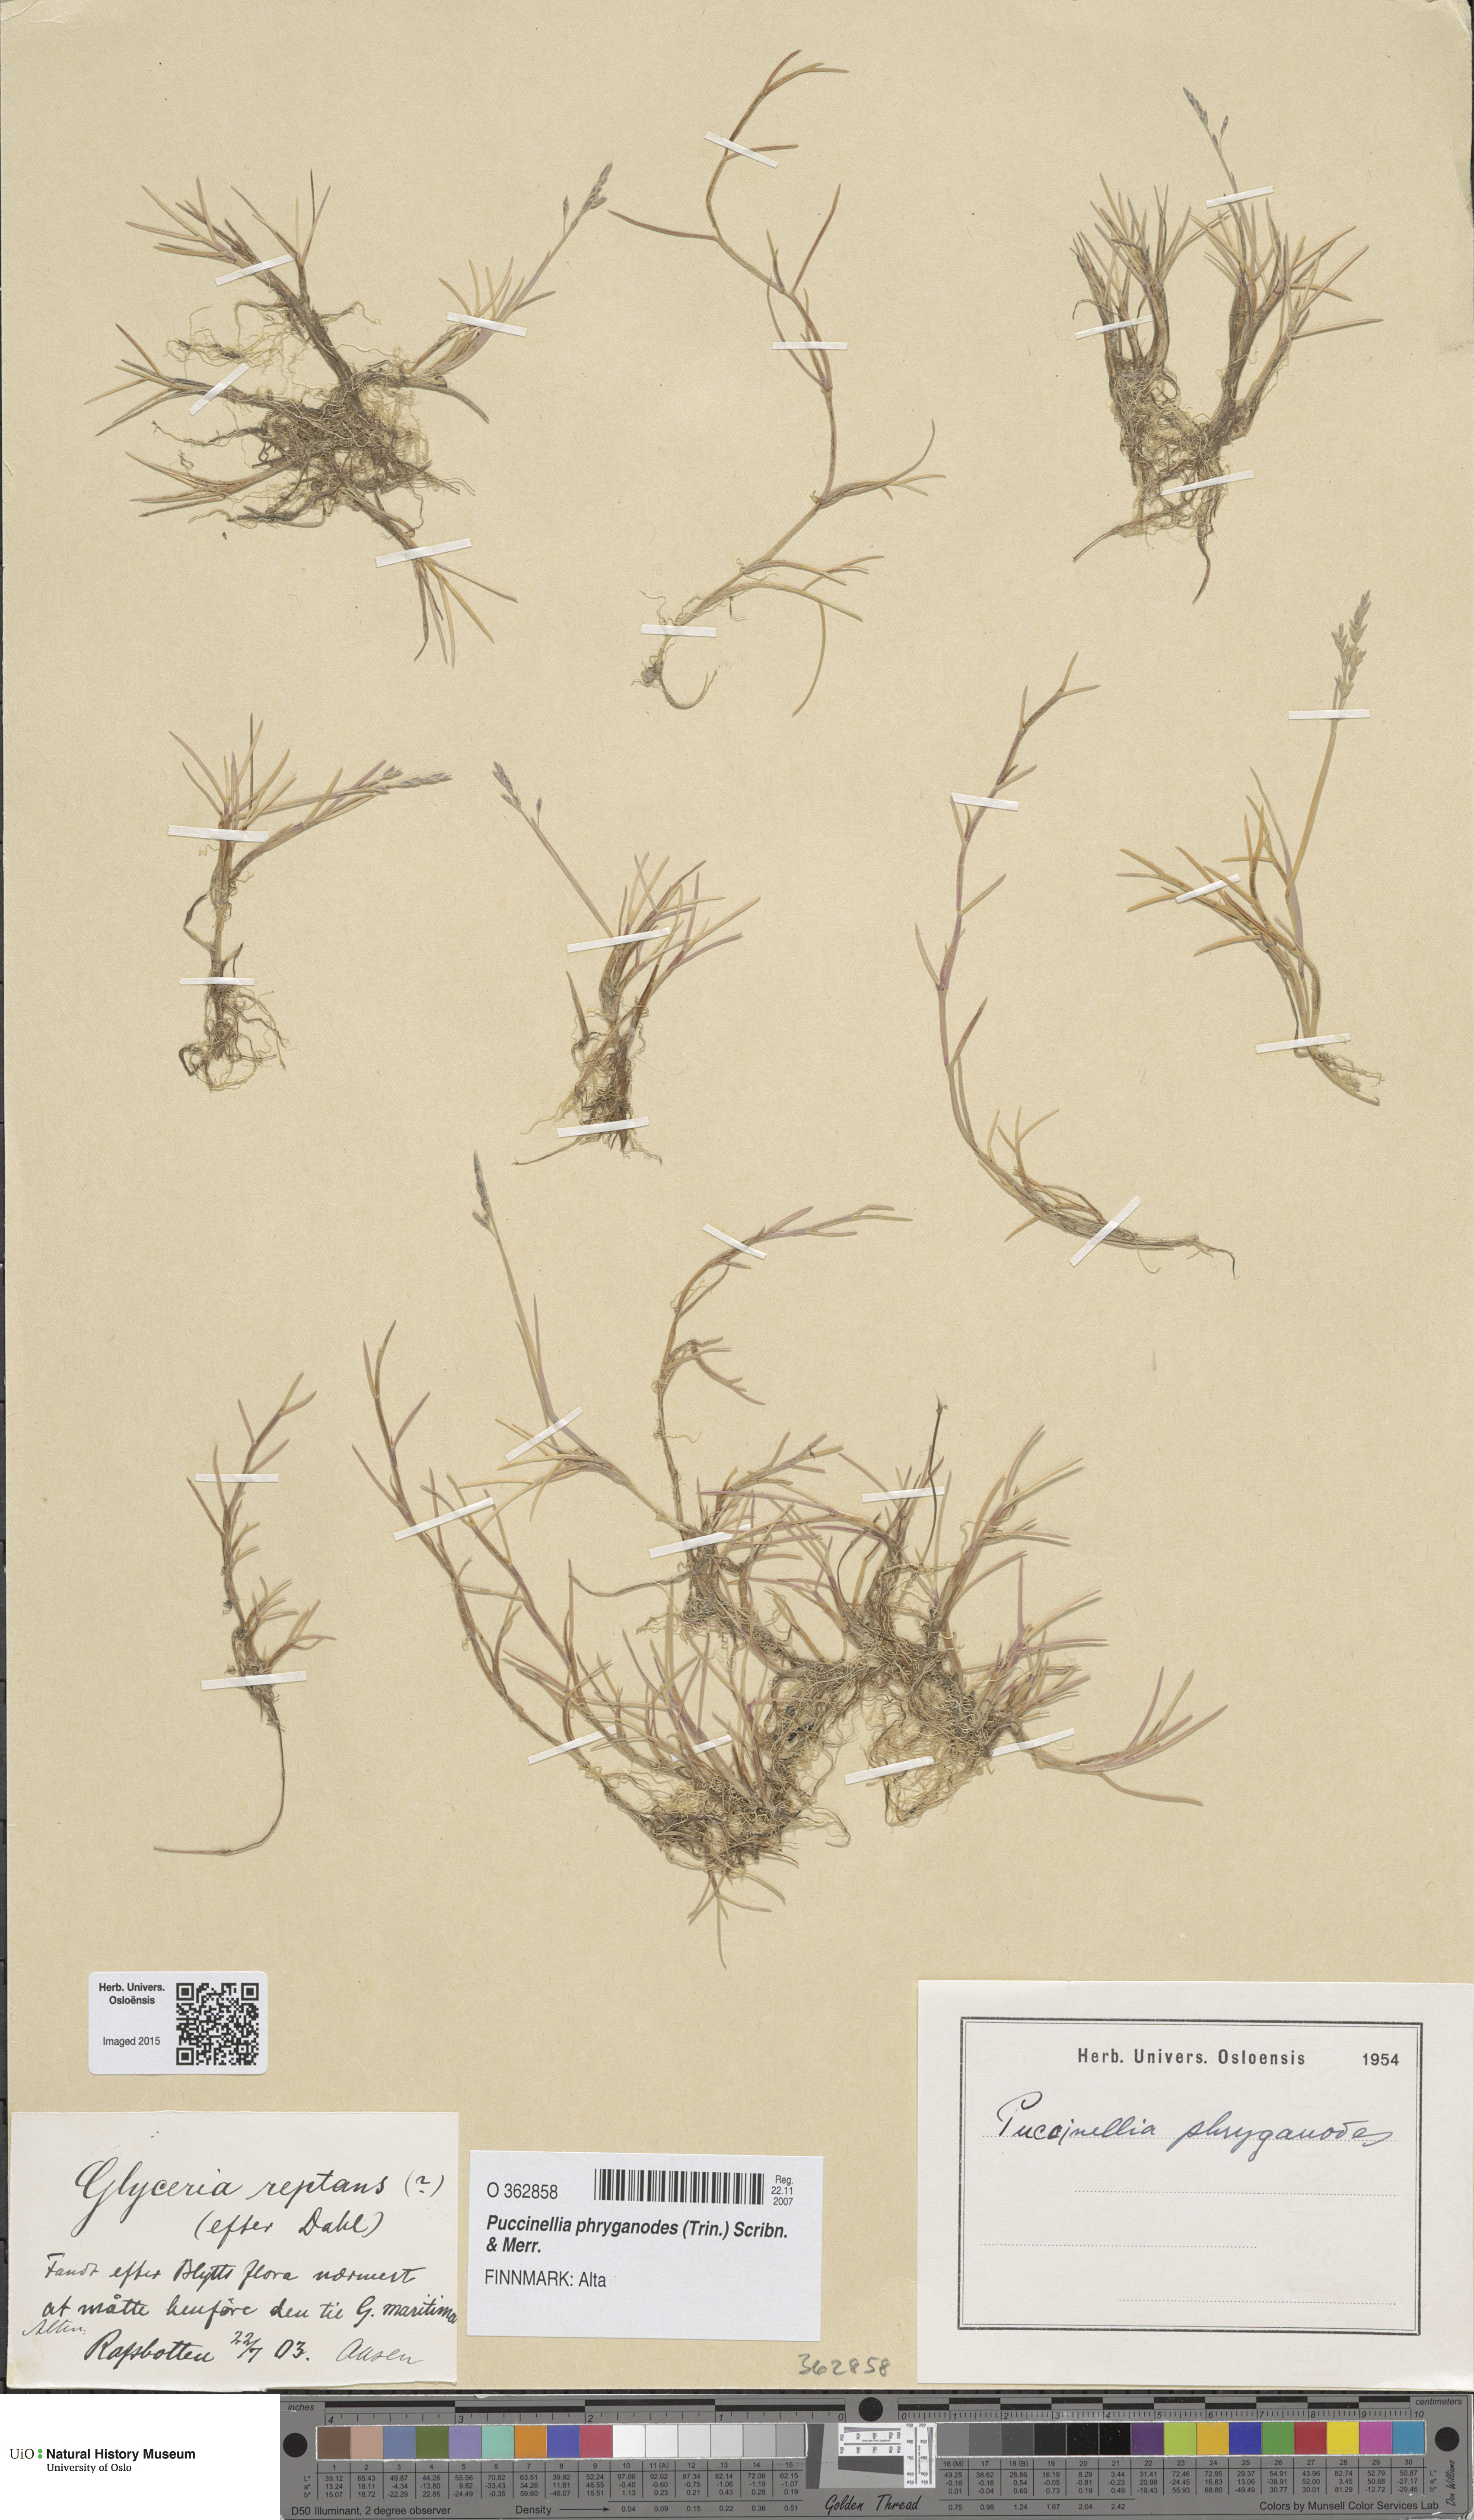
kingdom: Plantae
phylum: Tracheophyta
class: Liliopsida
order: Poales
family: Poaceae
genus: Puccinellia
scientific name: Puccinellia phryganodes
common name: Creeping alkaligrass
